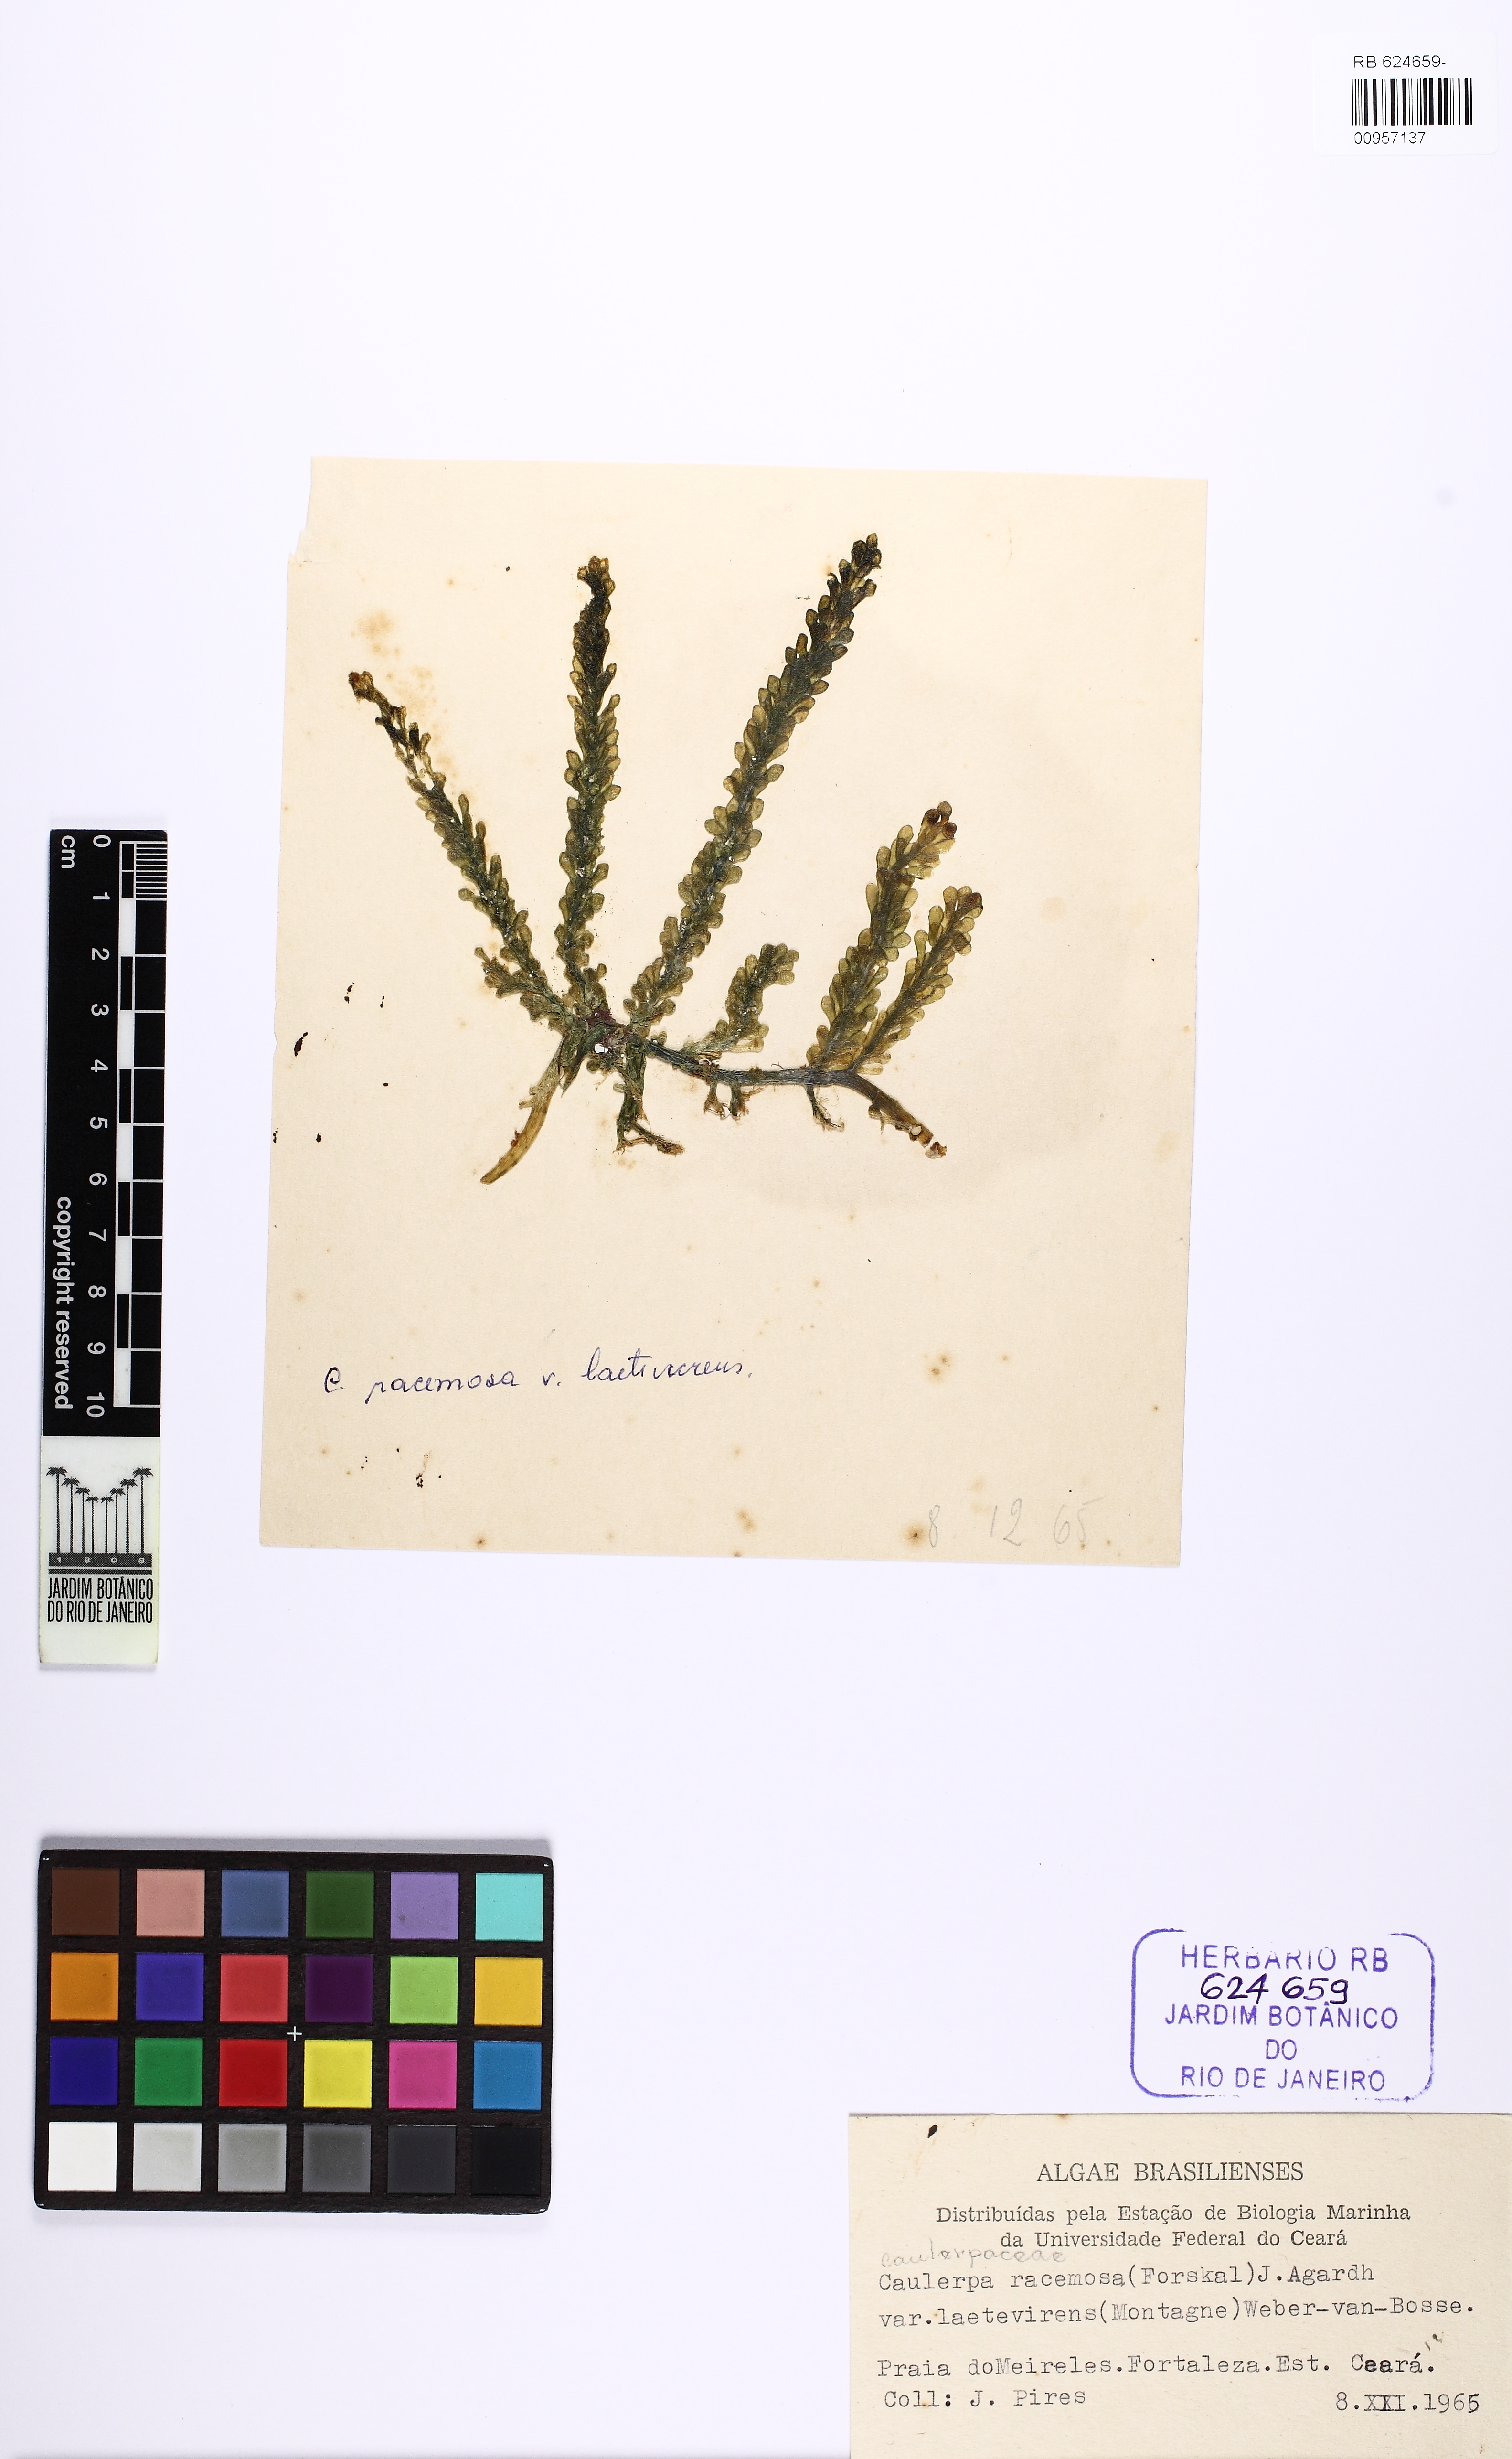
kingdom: Plantae
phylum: Chlorophyta
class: Ulvophyceae
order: Bryopsidales
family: Caulerpaceae
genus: Caulerpa
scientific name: Caulerpa chemnitzia
